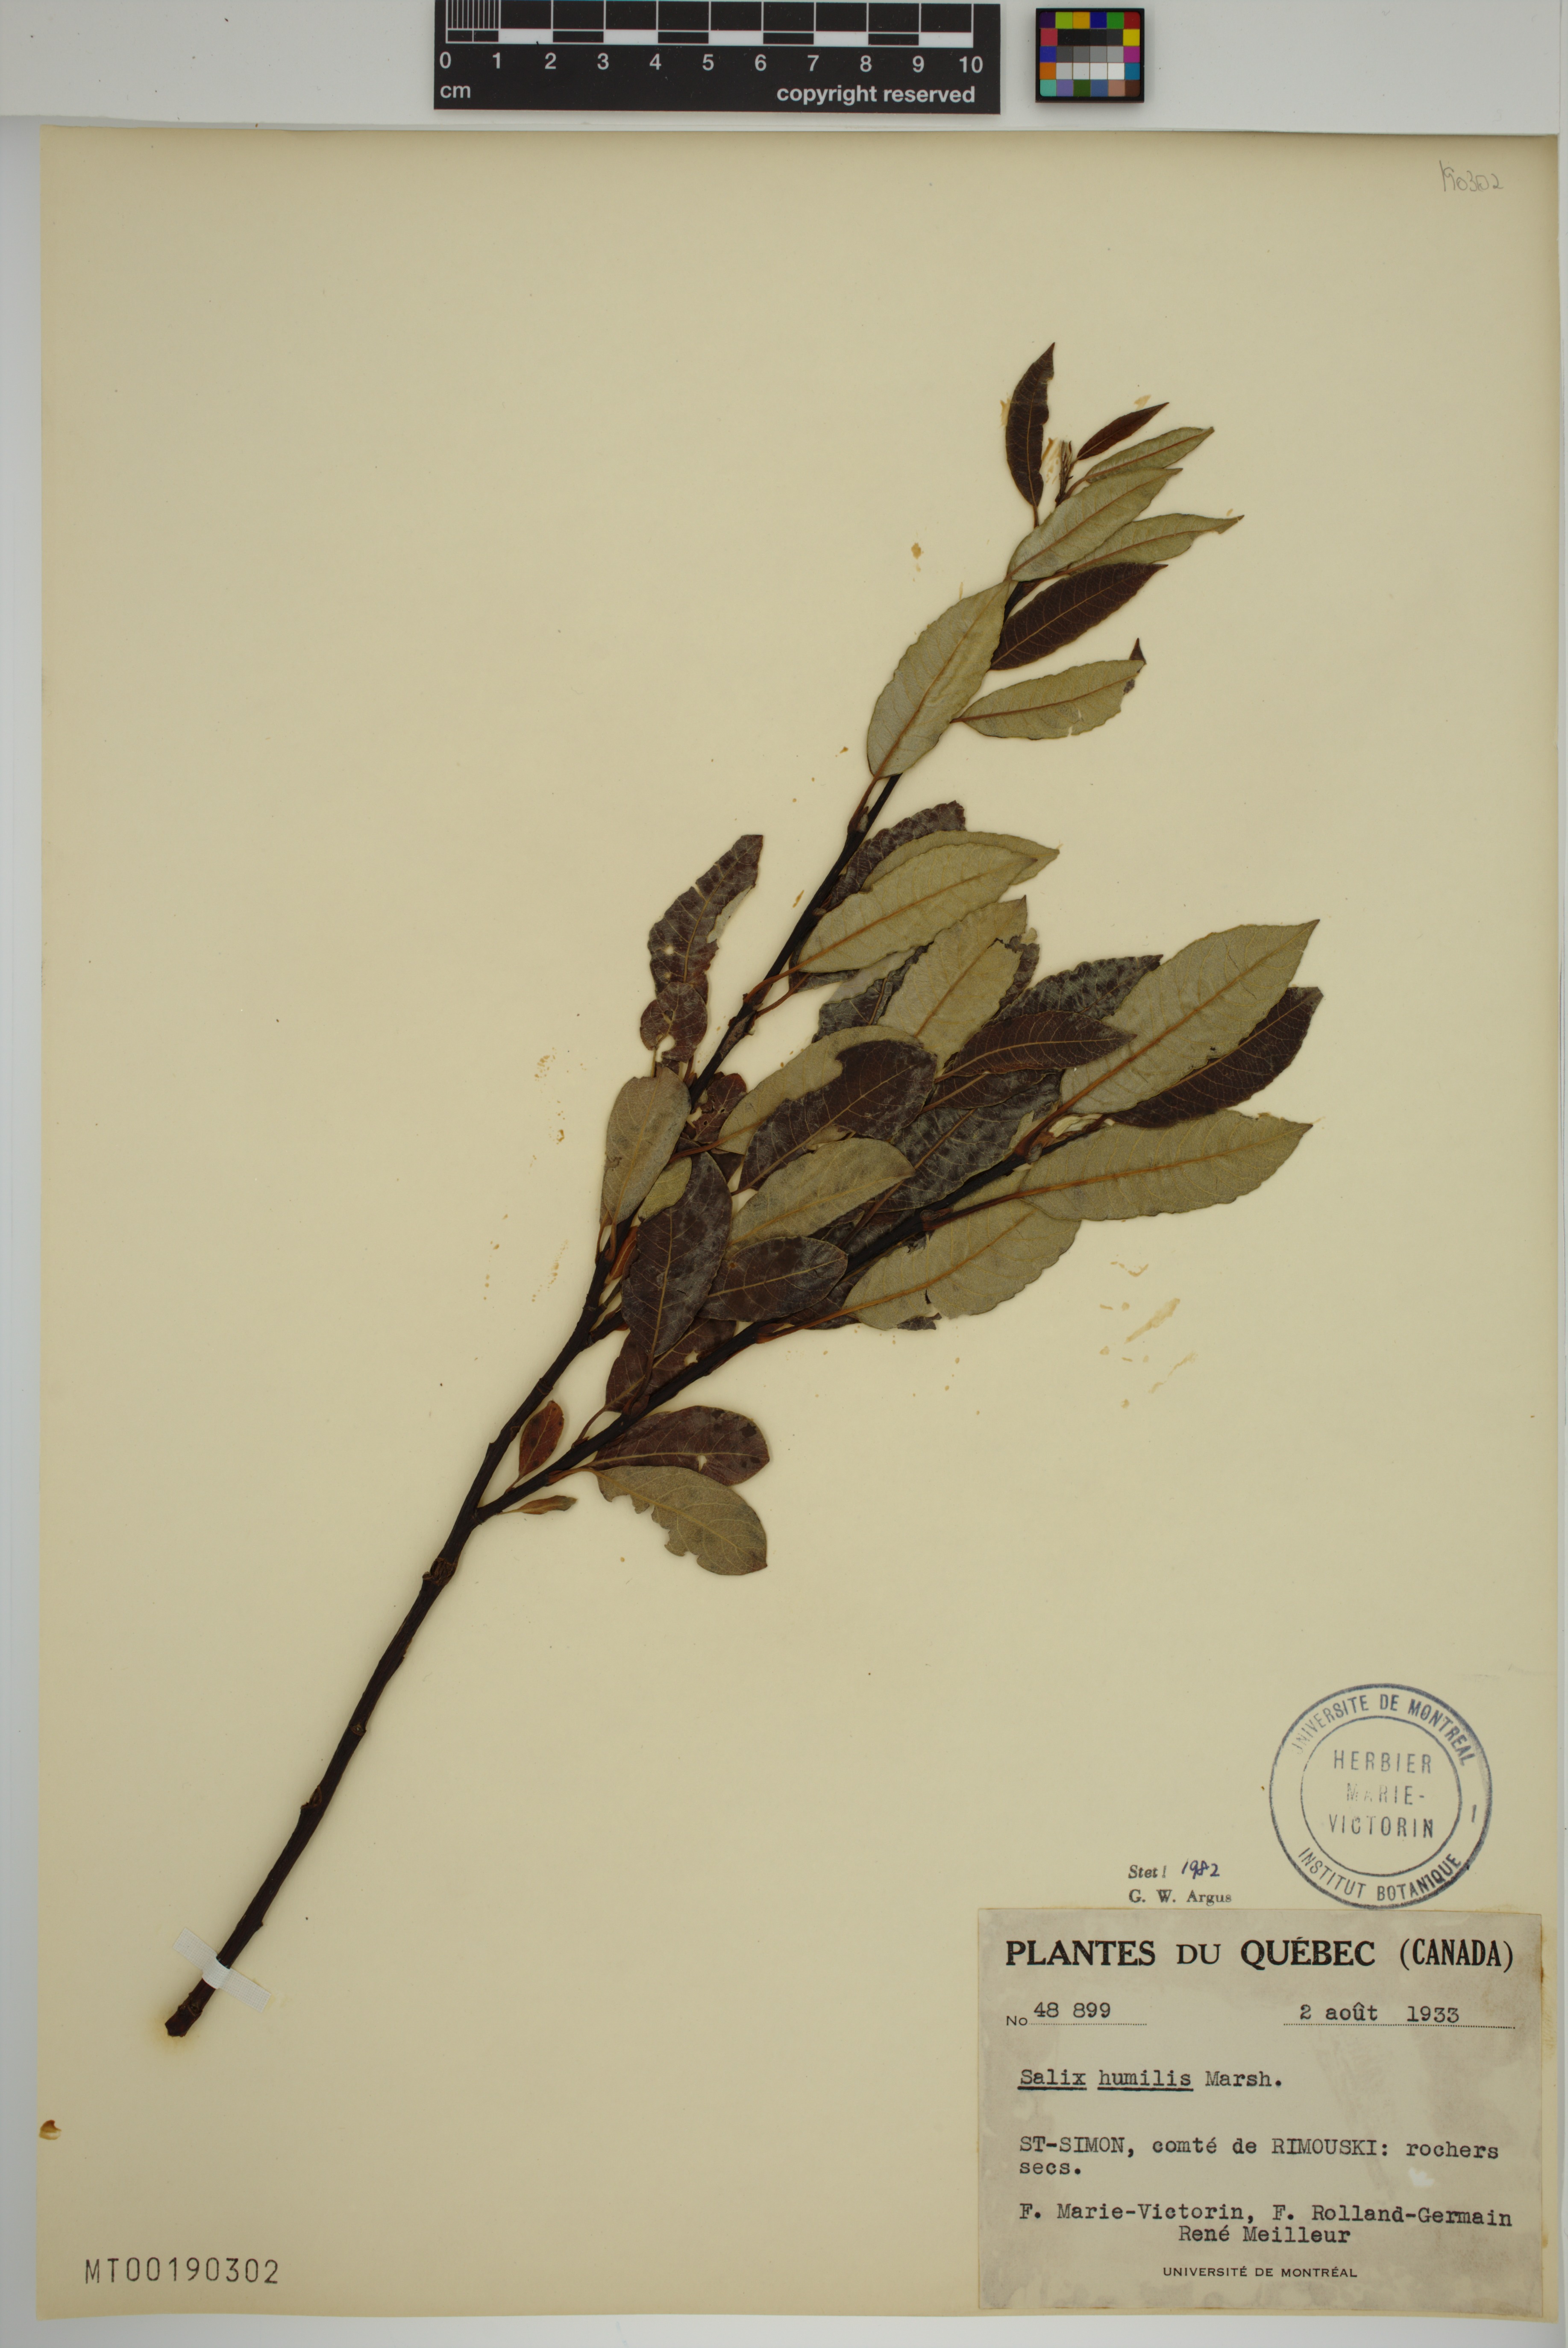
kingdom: Plantae
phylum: Tracheophyta
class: Magnoliopsida
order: Malpighiales
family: Salicaceae
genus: Salix
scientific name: Salix humilis
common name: Prairie willow
